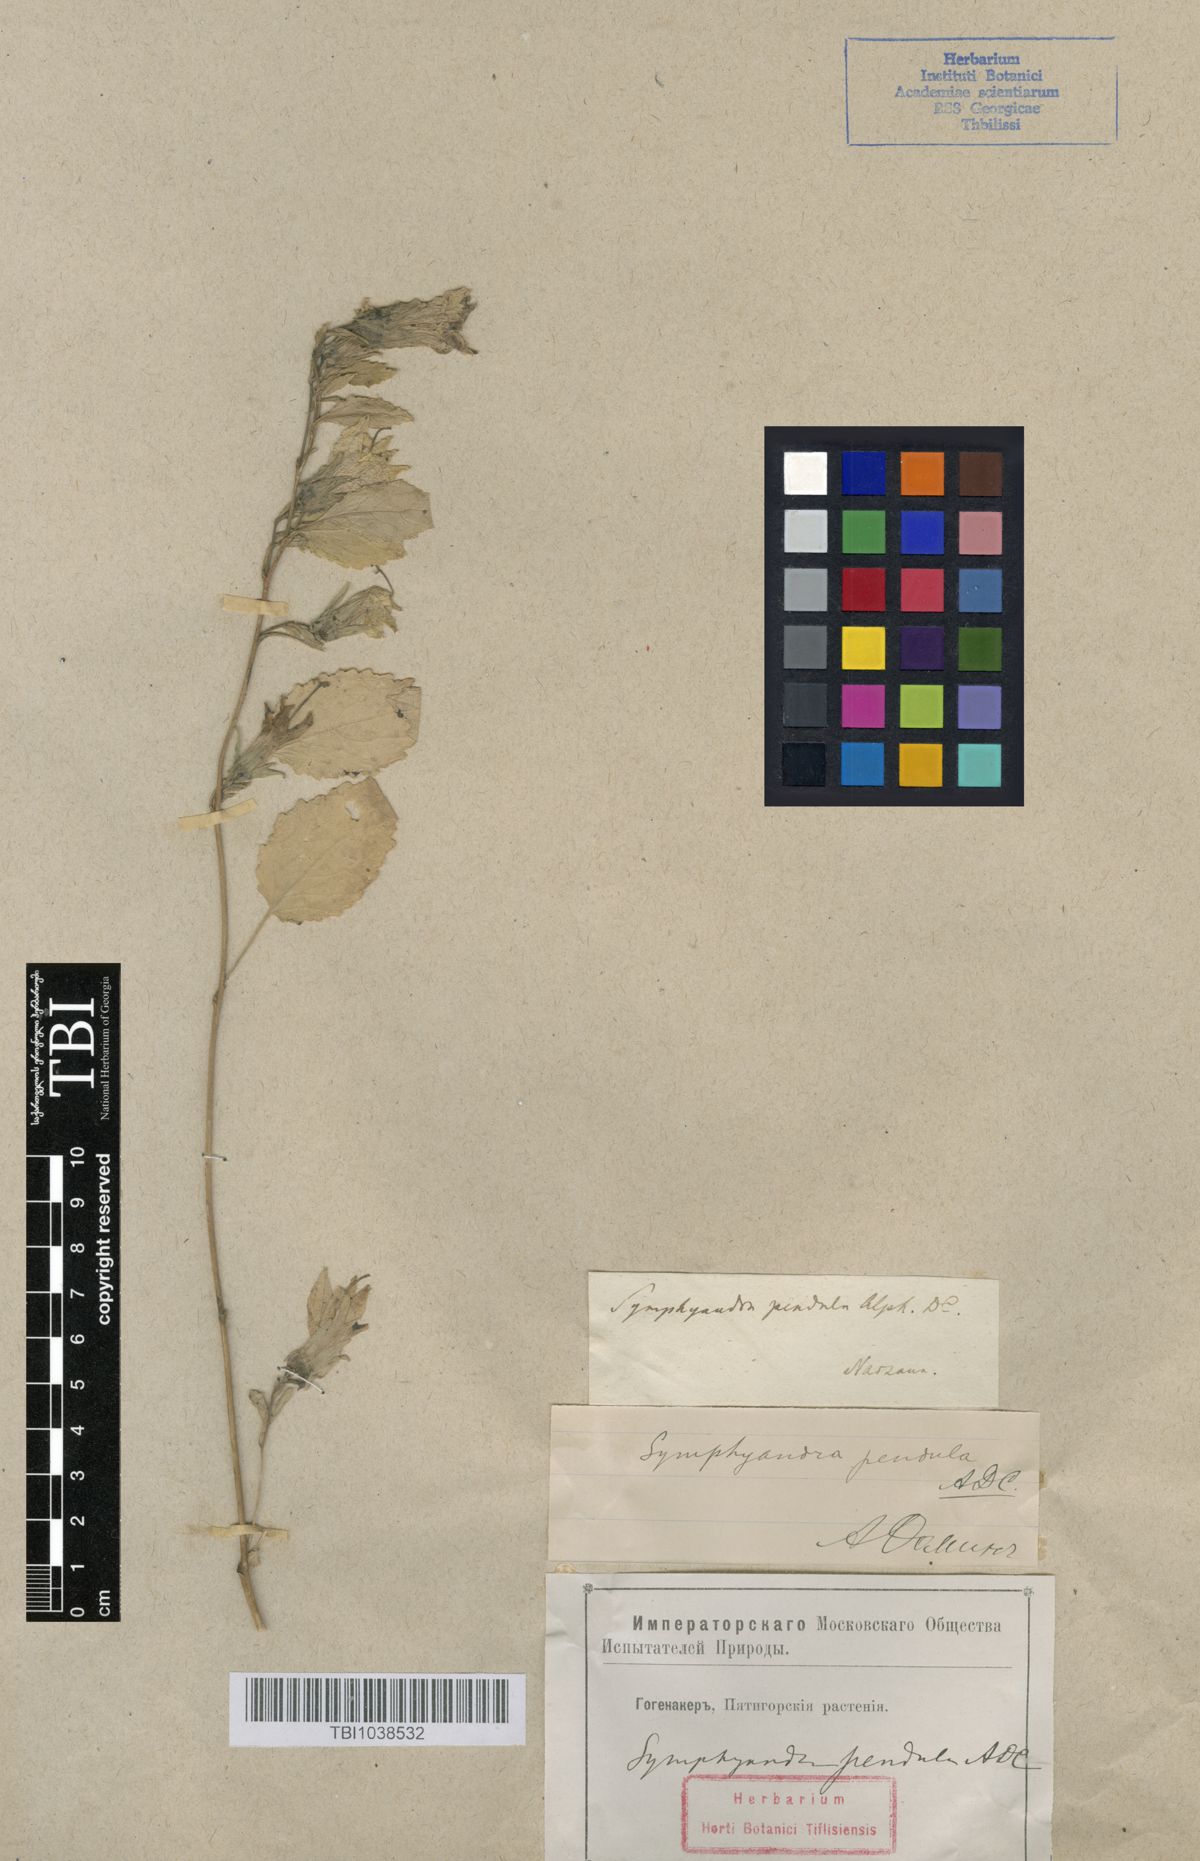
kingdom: Plantae
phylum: Tracheophyta
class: Magnoliopsida
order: Asterales
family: Campanulaceae
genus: Campanula
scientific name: Campanula pendula
